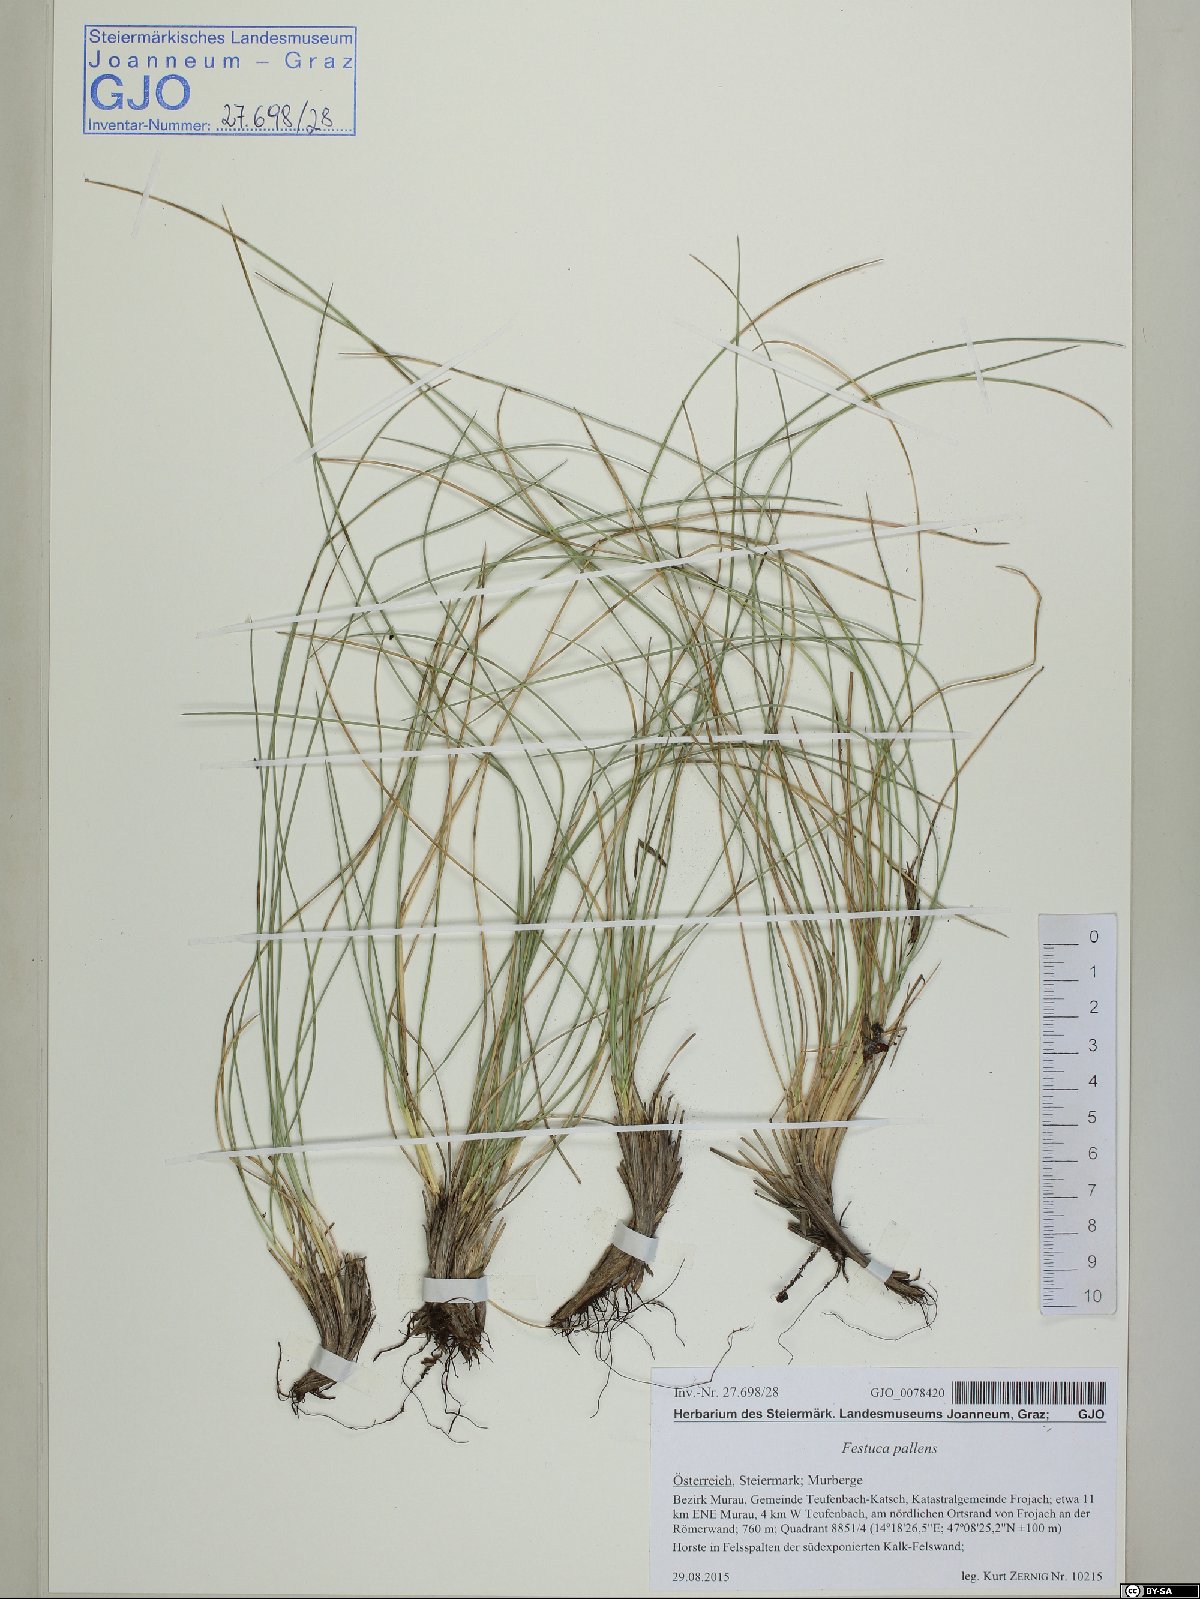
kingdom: Plantae
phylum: Tracheophyta
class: Liliopsida
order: Poales
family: Poaceae
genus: Festuca
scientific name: Festuca pallens
